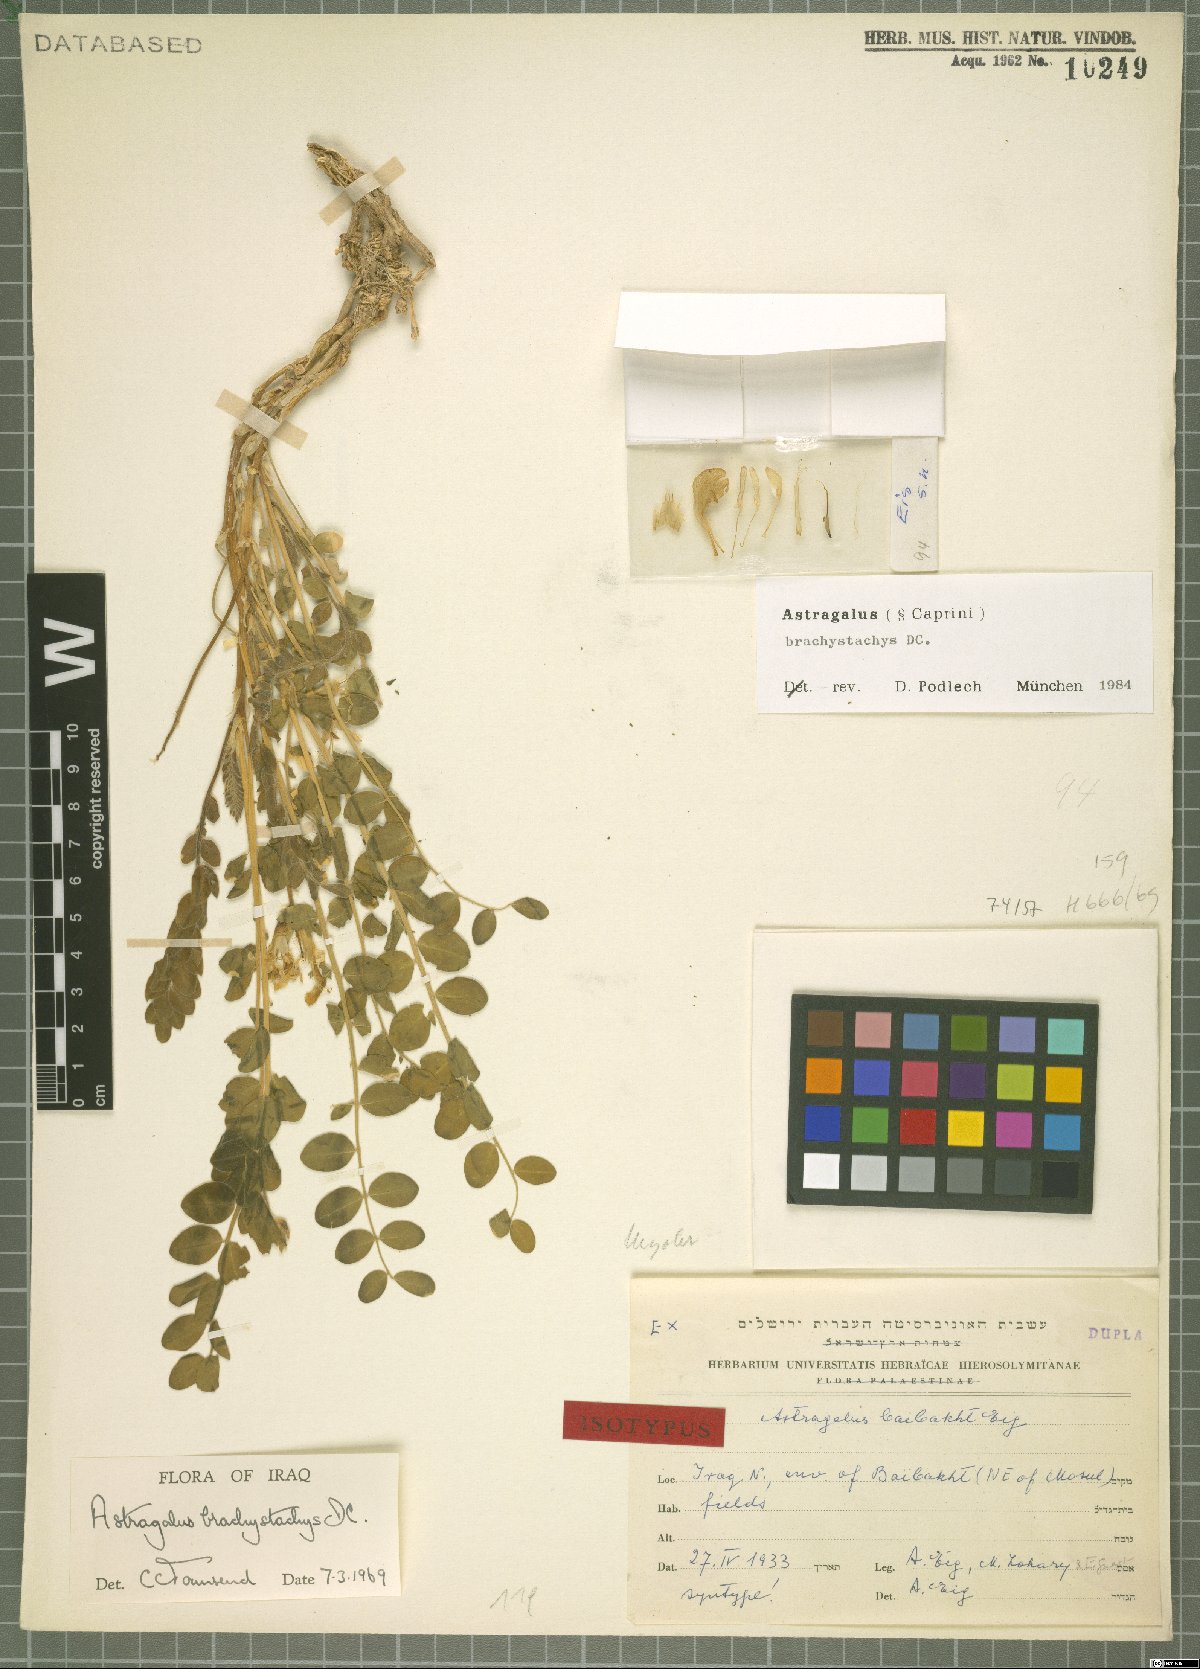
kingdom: Plantae
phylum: Tracheophyta
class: Magnoliopsida
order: Fabales
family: Fabaceae
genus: Astragalus
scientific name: Astragalus brachystachys
